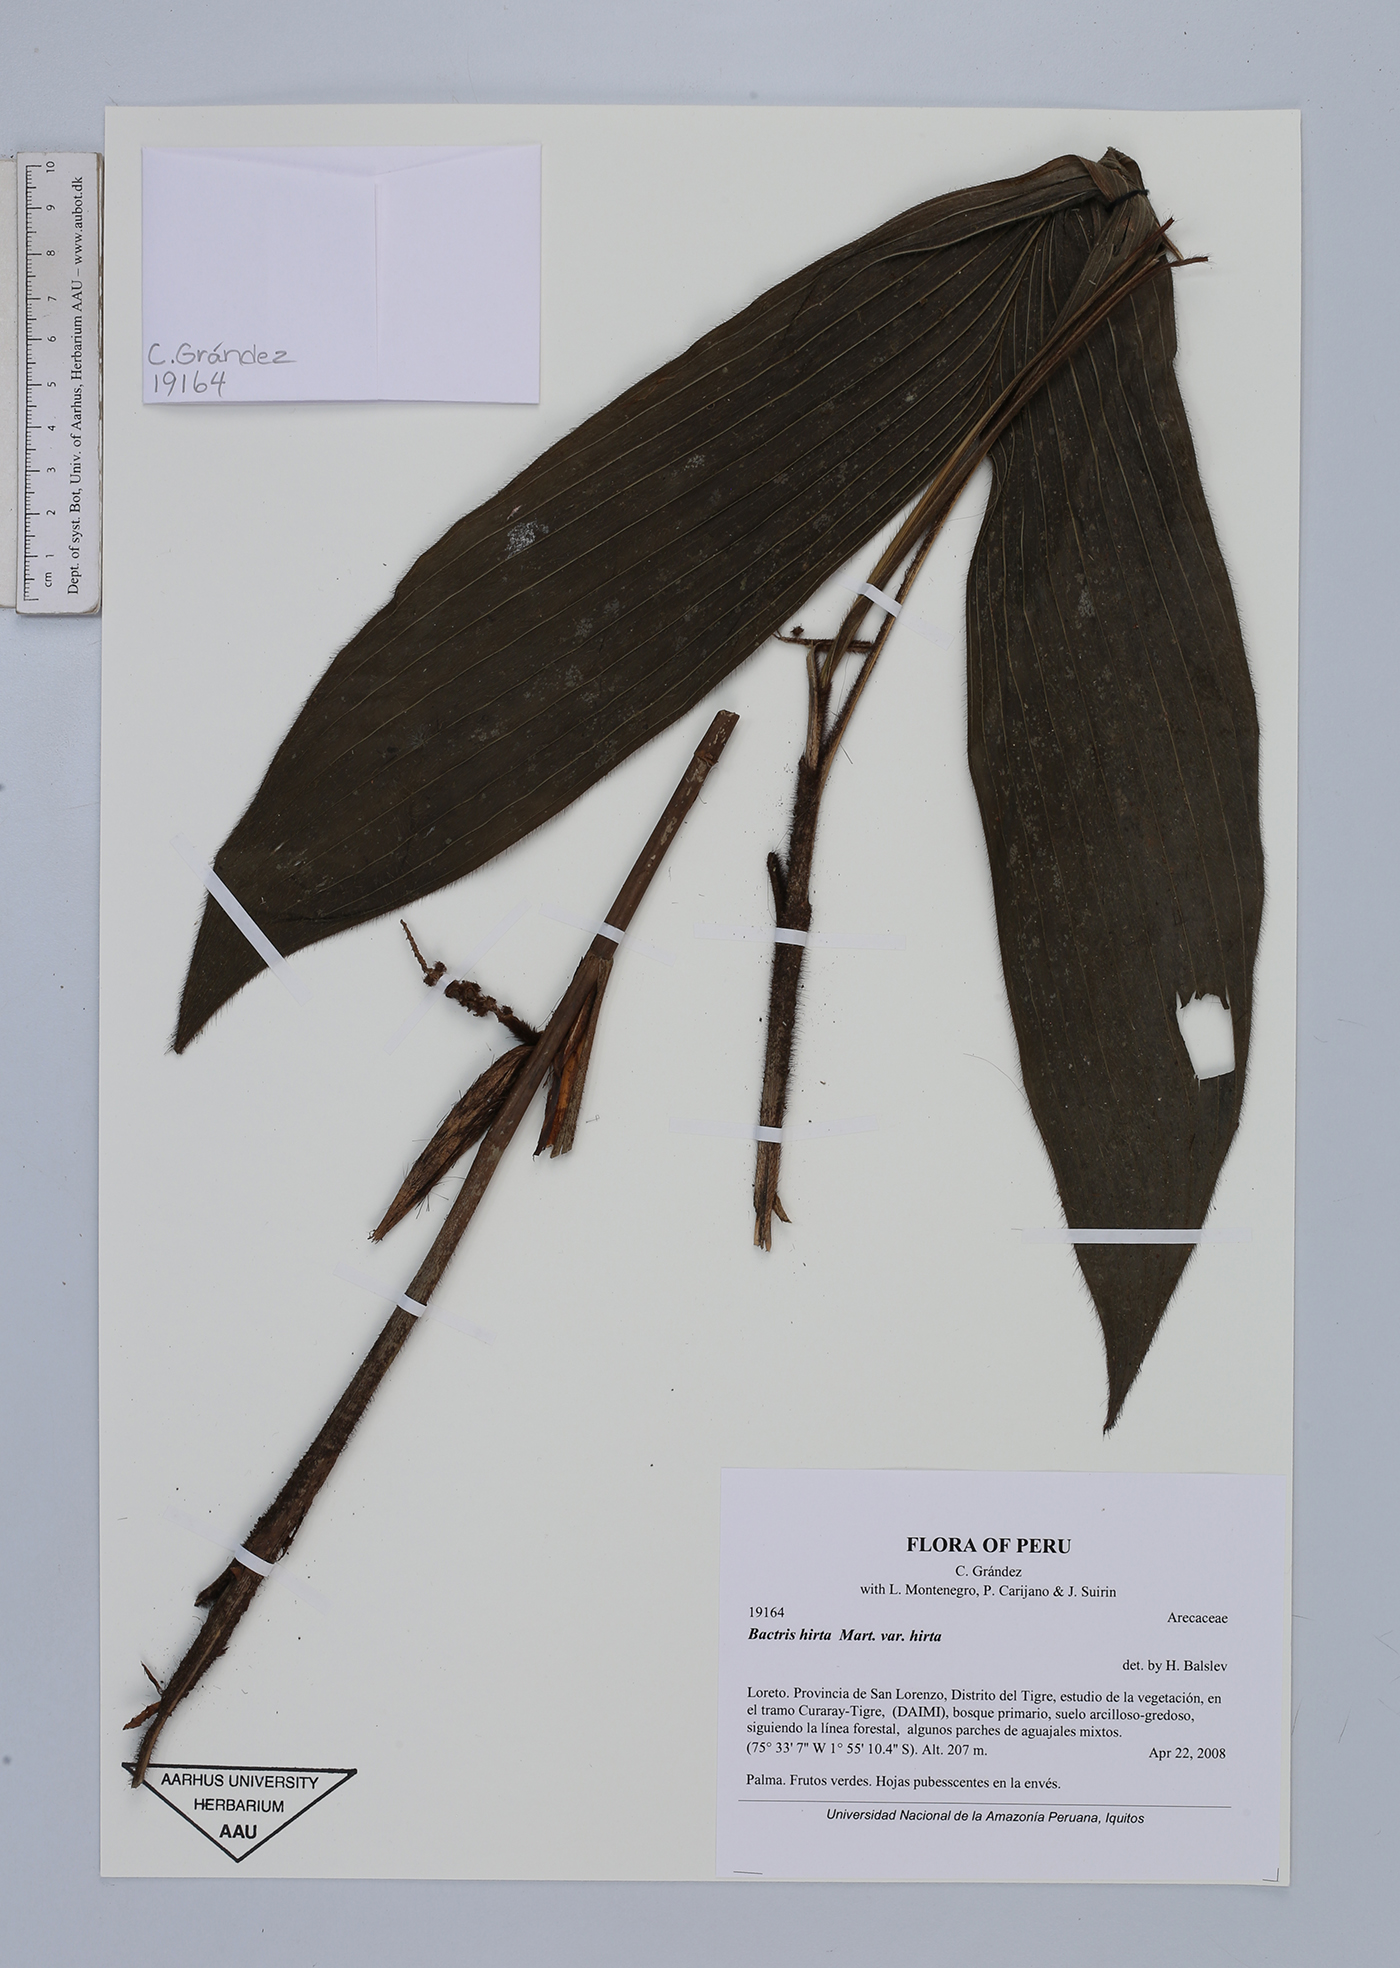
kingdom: Plantae
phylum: Tracheophyta
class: Liliopsida
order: Arecales
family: Arecaceae
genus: Bactris
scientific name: Bactris hirta
